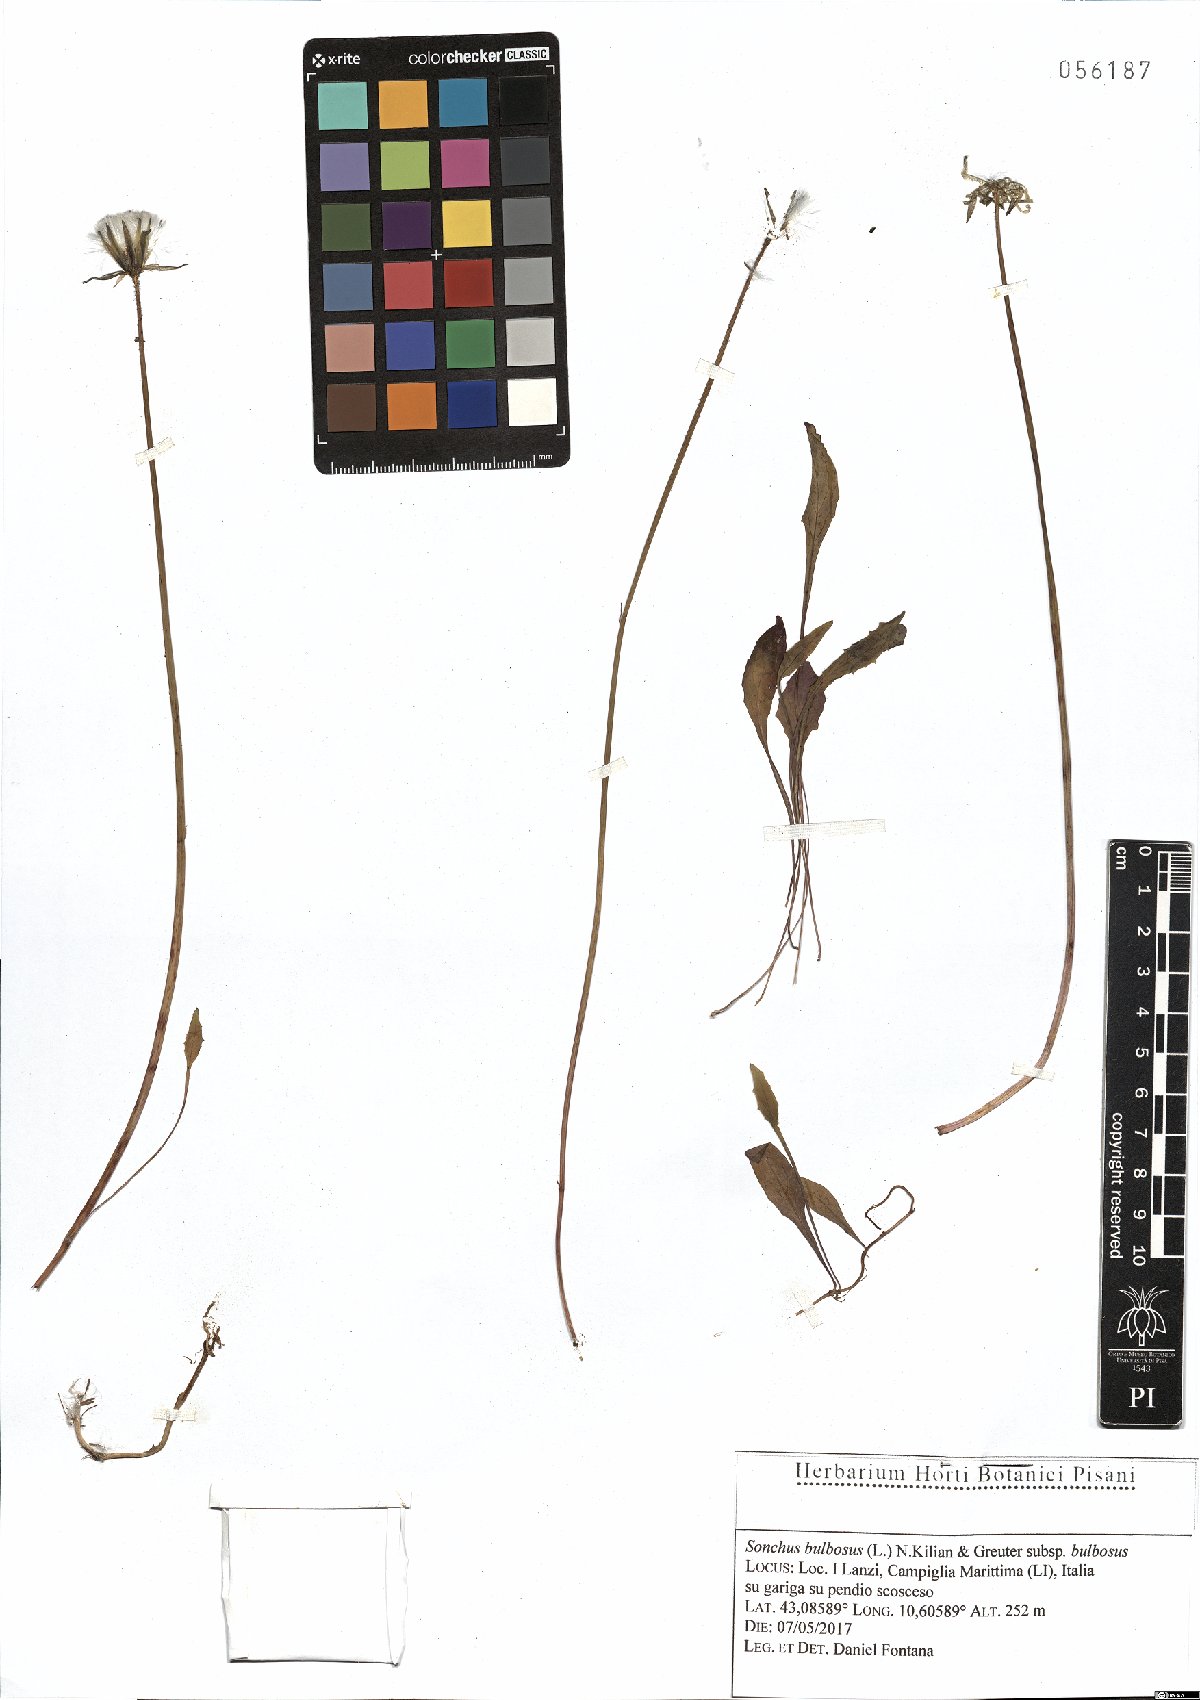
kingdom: Plantae
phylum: Tracheophyta
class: Magnoliopsida
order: Asterales
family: Asteraceae
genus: Aetheorhiza
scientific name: Aetheorhiza bulbosa
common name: Tuberous hawk's-beard
